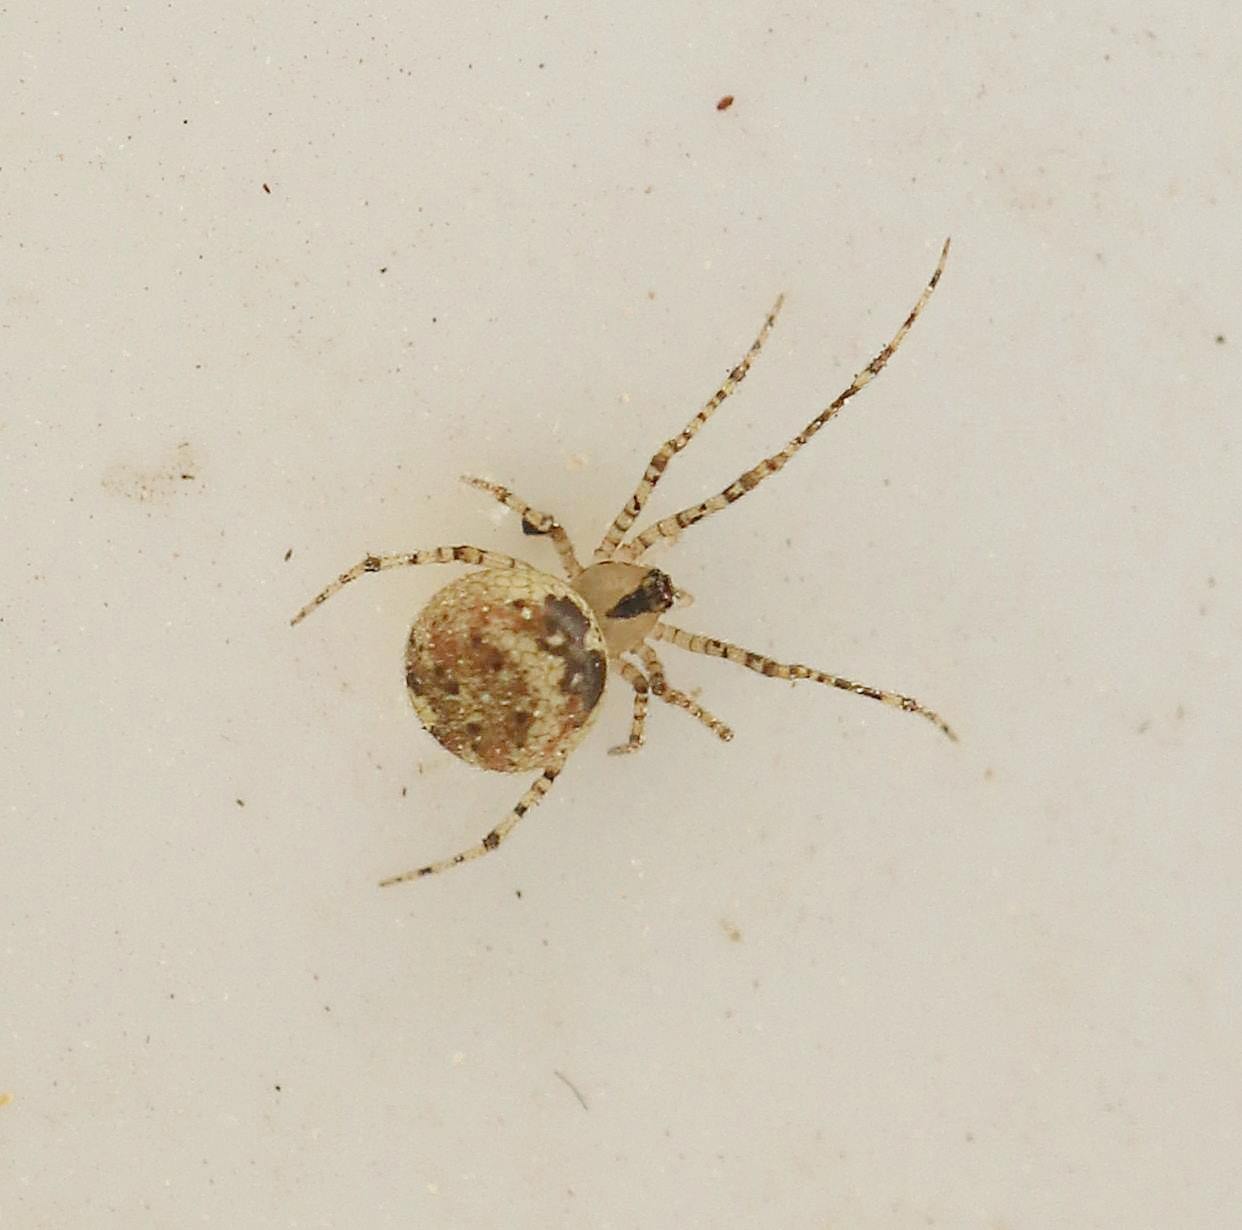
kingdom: Animalia
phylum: Arthropoda
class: Arachnida
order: Araneae
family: Theridiidae
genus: Platnickina
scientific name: Platnickina tincta
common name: Blækkugleedderkop
